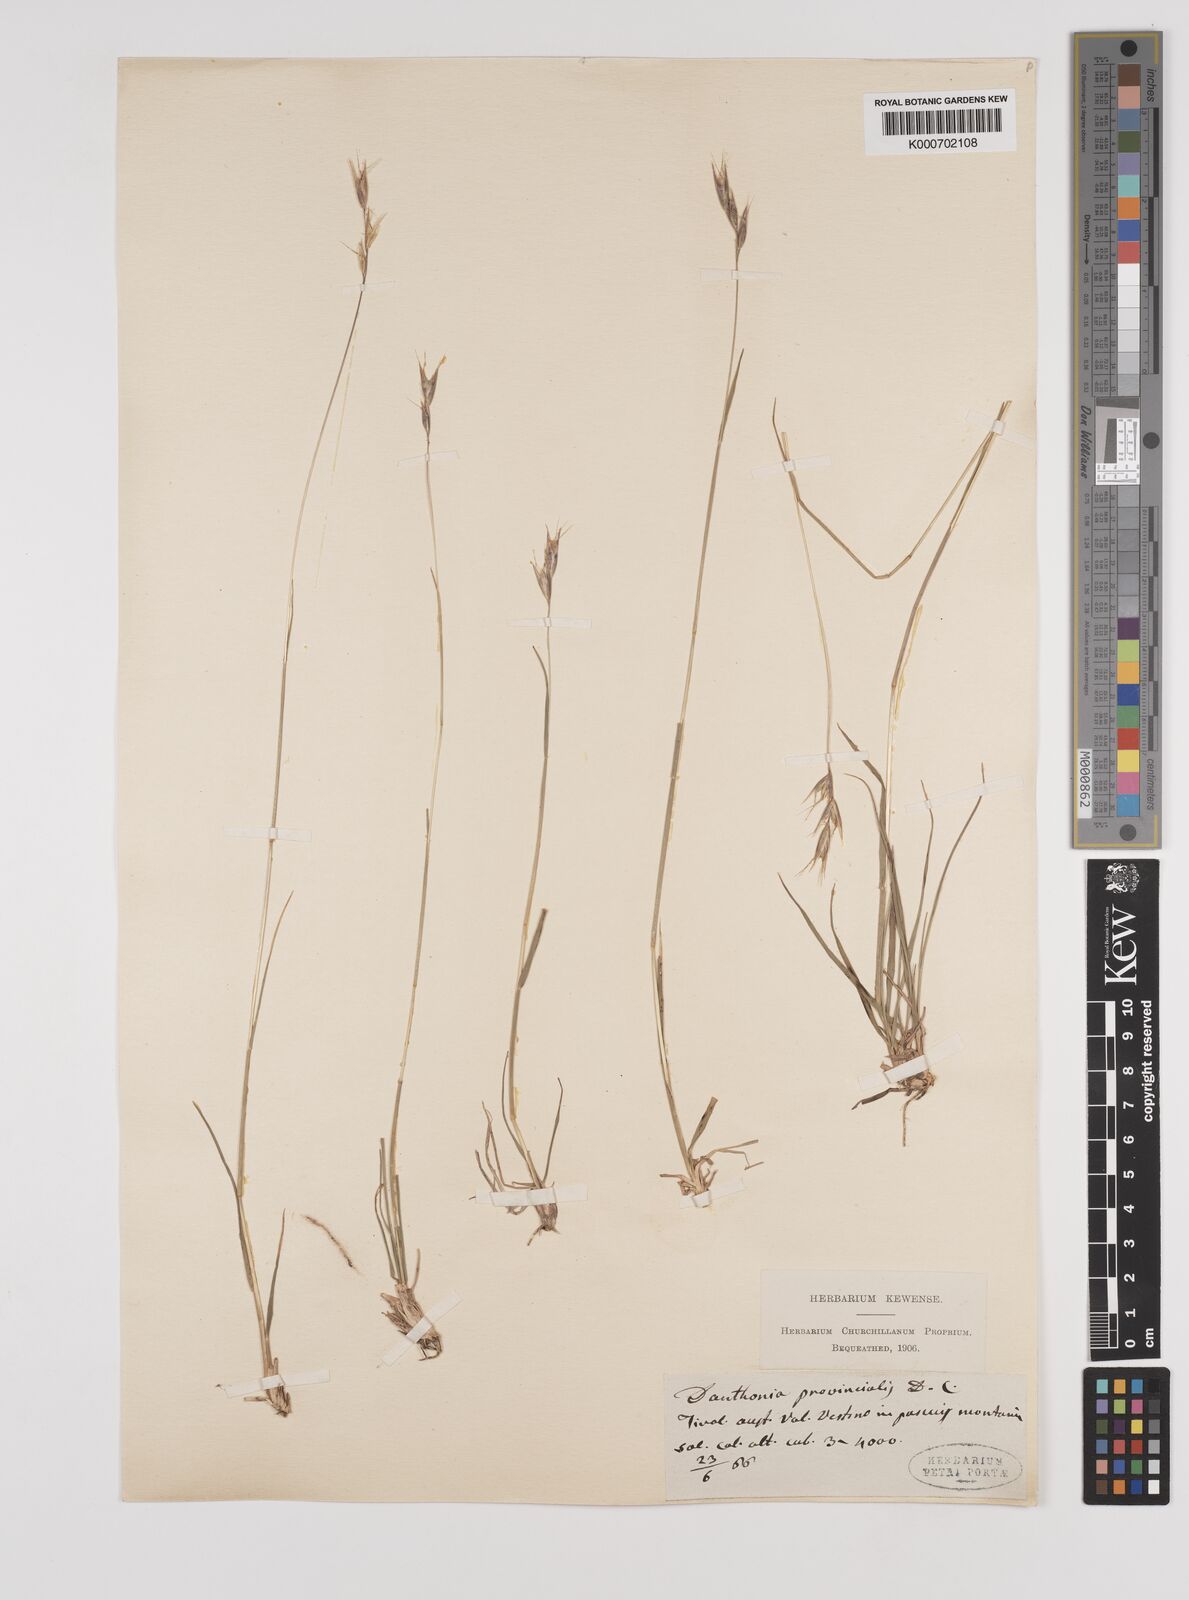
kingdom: Plantae
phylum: Tracheophyta
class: Liliopsida
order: Poales
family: Poaceae
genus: Danthonia
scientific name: Danthonia alpina
